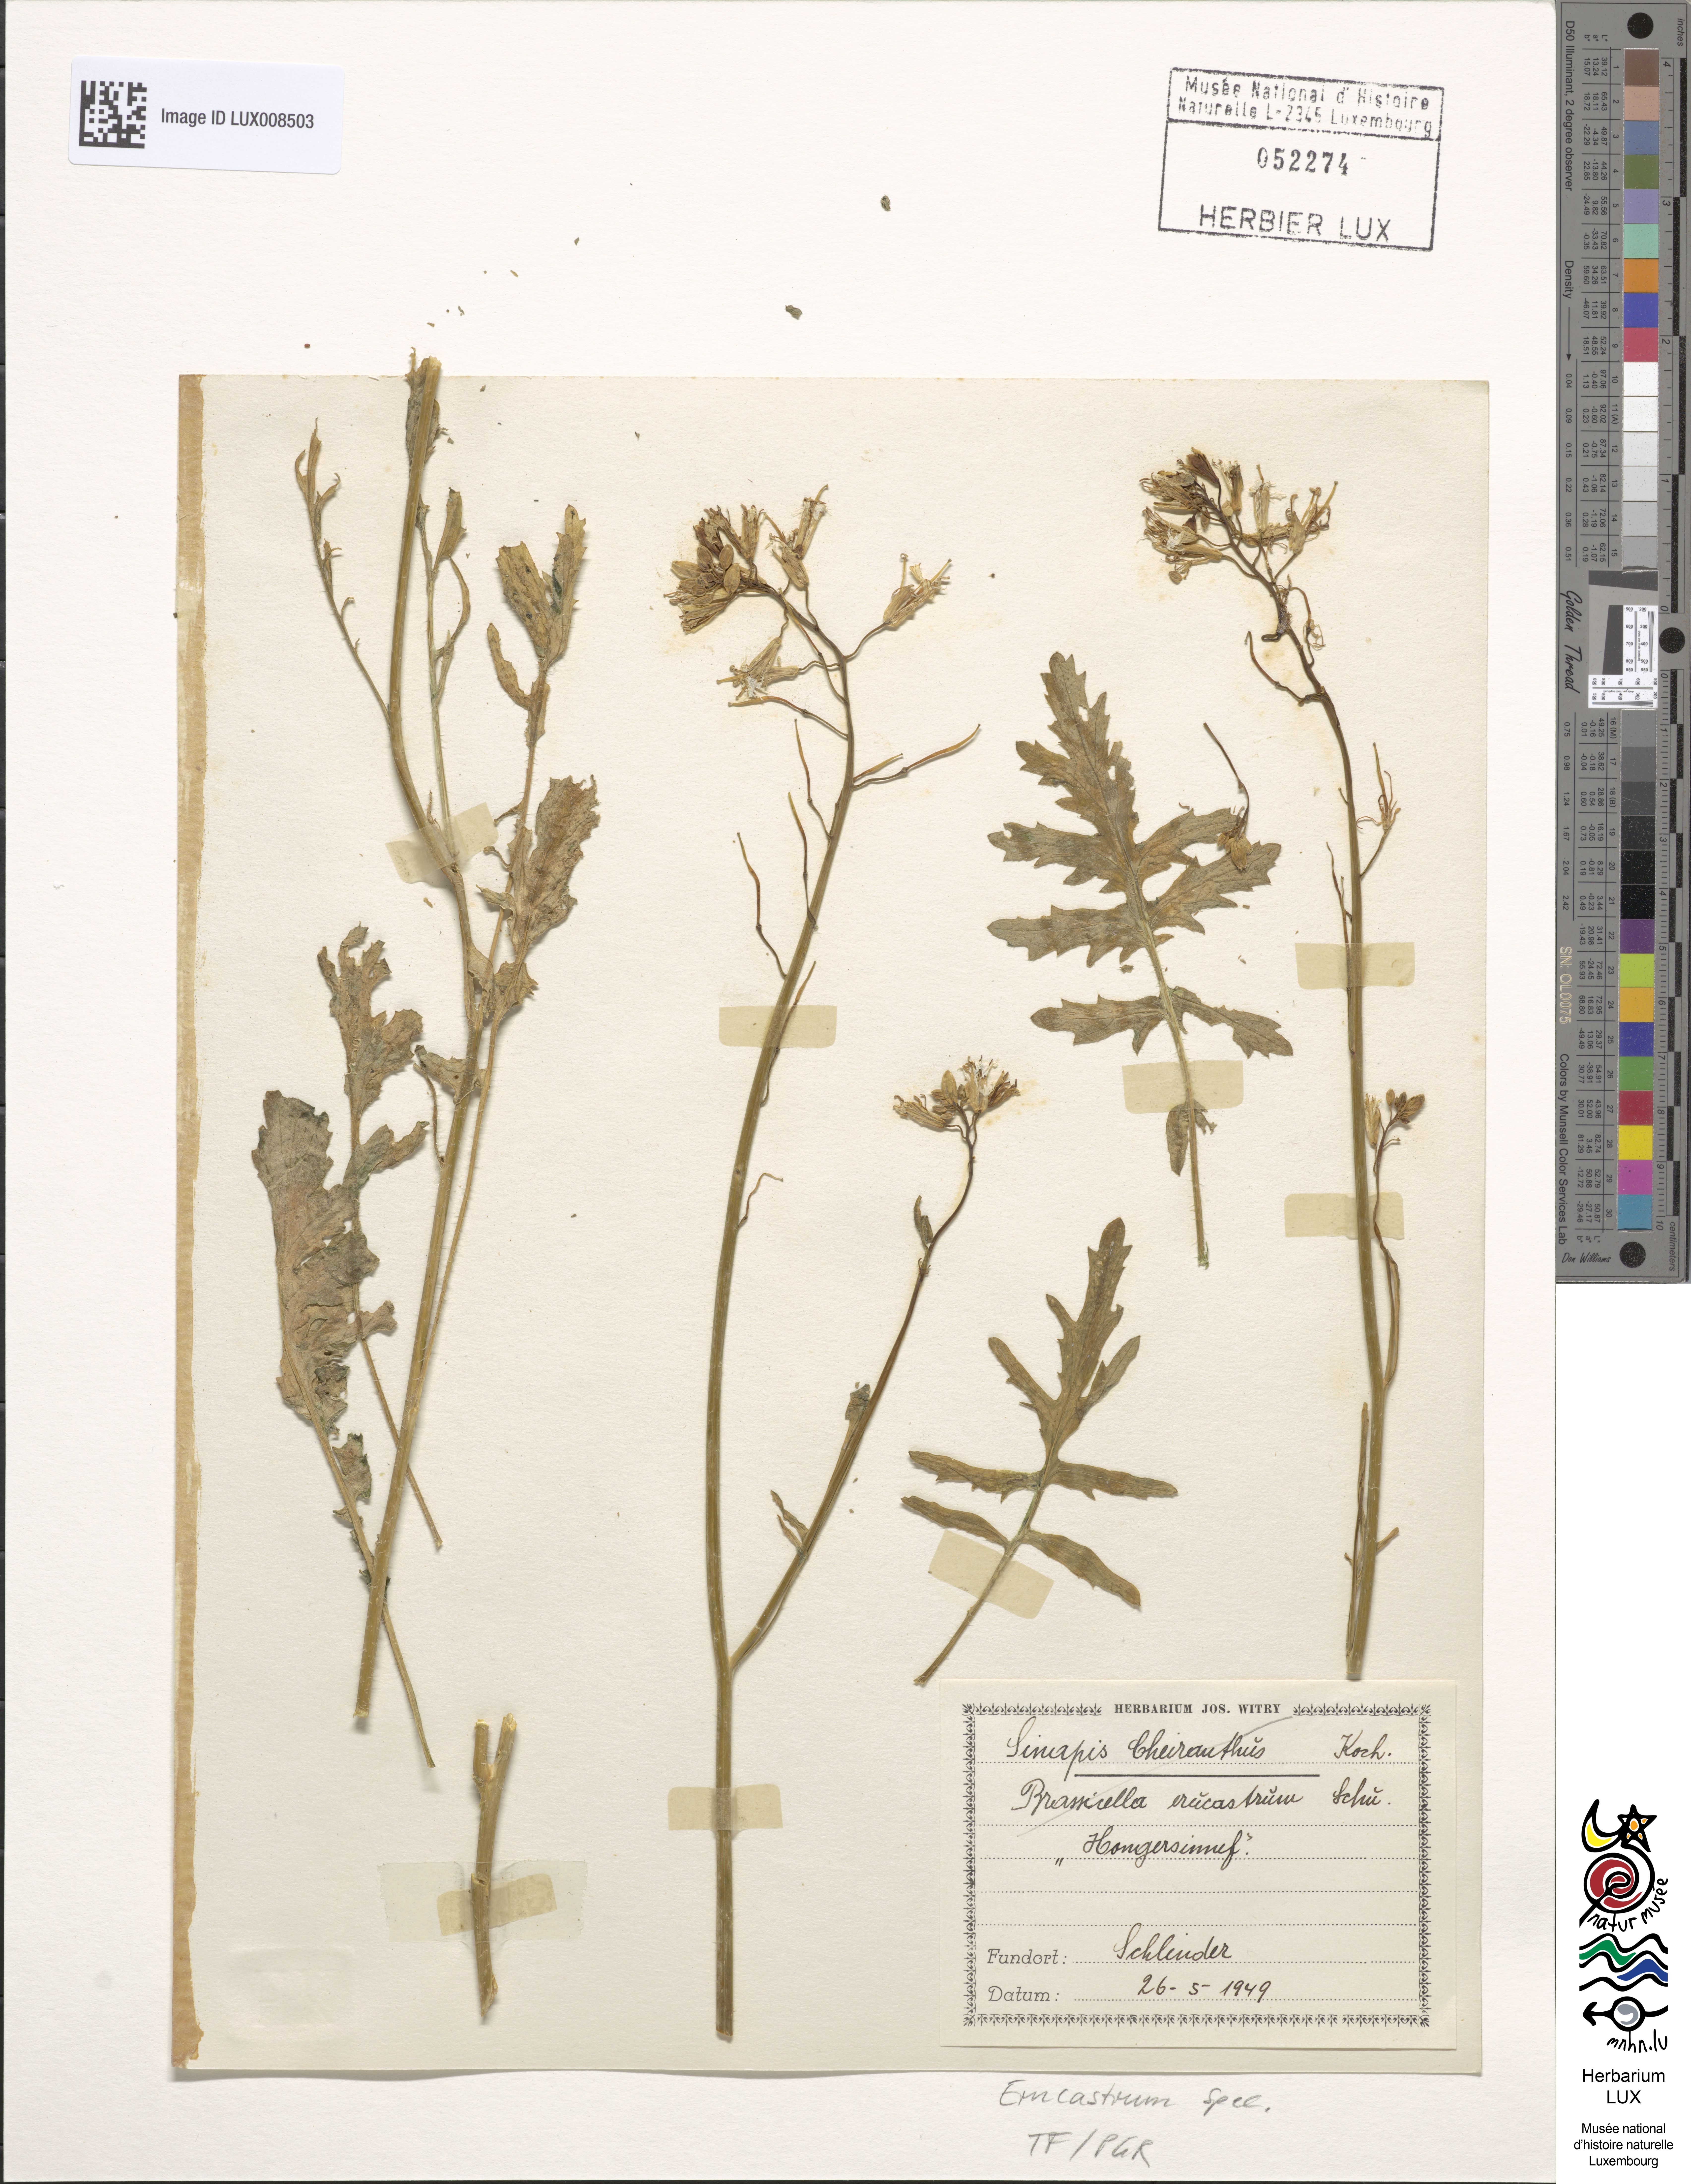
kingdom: Plantae
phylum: Tracheophyta
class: Magnoliopsida
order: Brassicales
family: Brassicaceae
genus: Erucastrum
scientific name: Erucastrum
